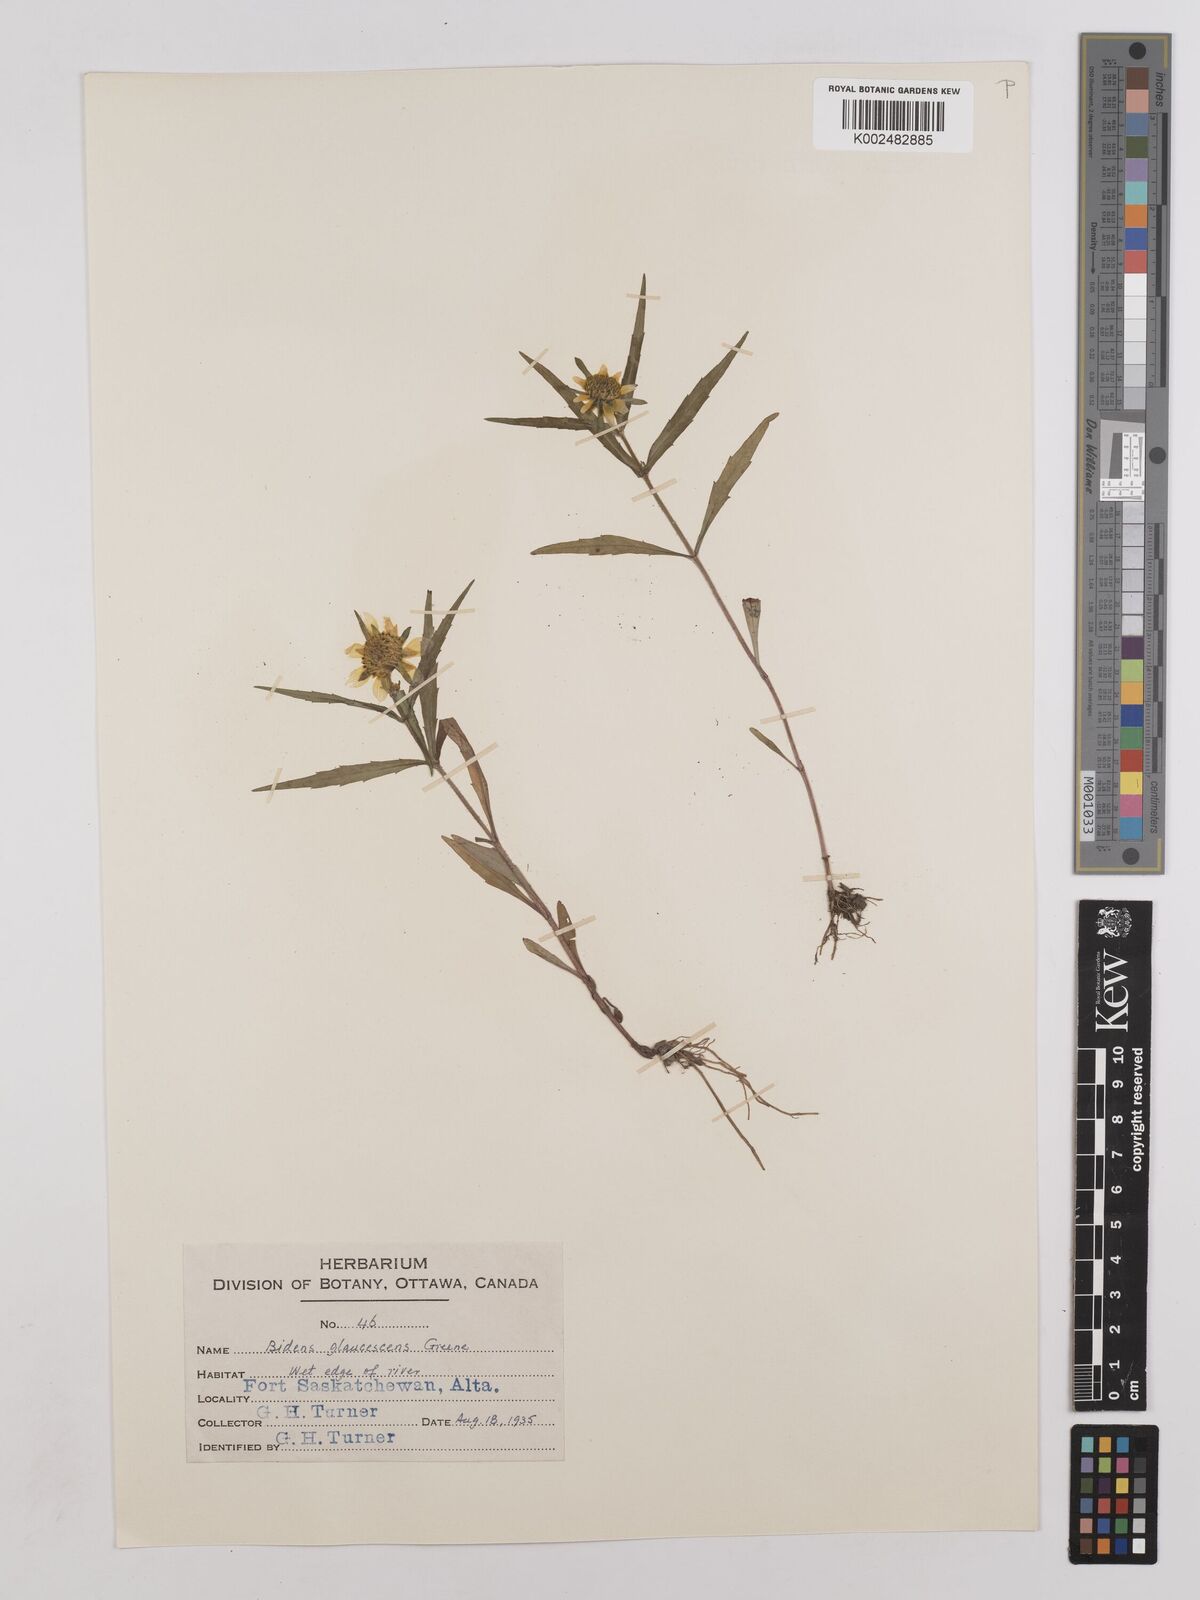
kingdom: Plantae
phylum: Tracheophyta
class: Magnoliopsida
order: Asterales
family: Asteraceae
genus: Bidens
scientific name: Bidens cernua
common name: Nodding bur-marigold
